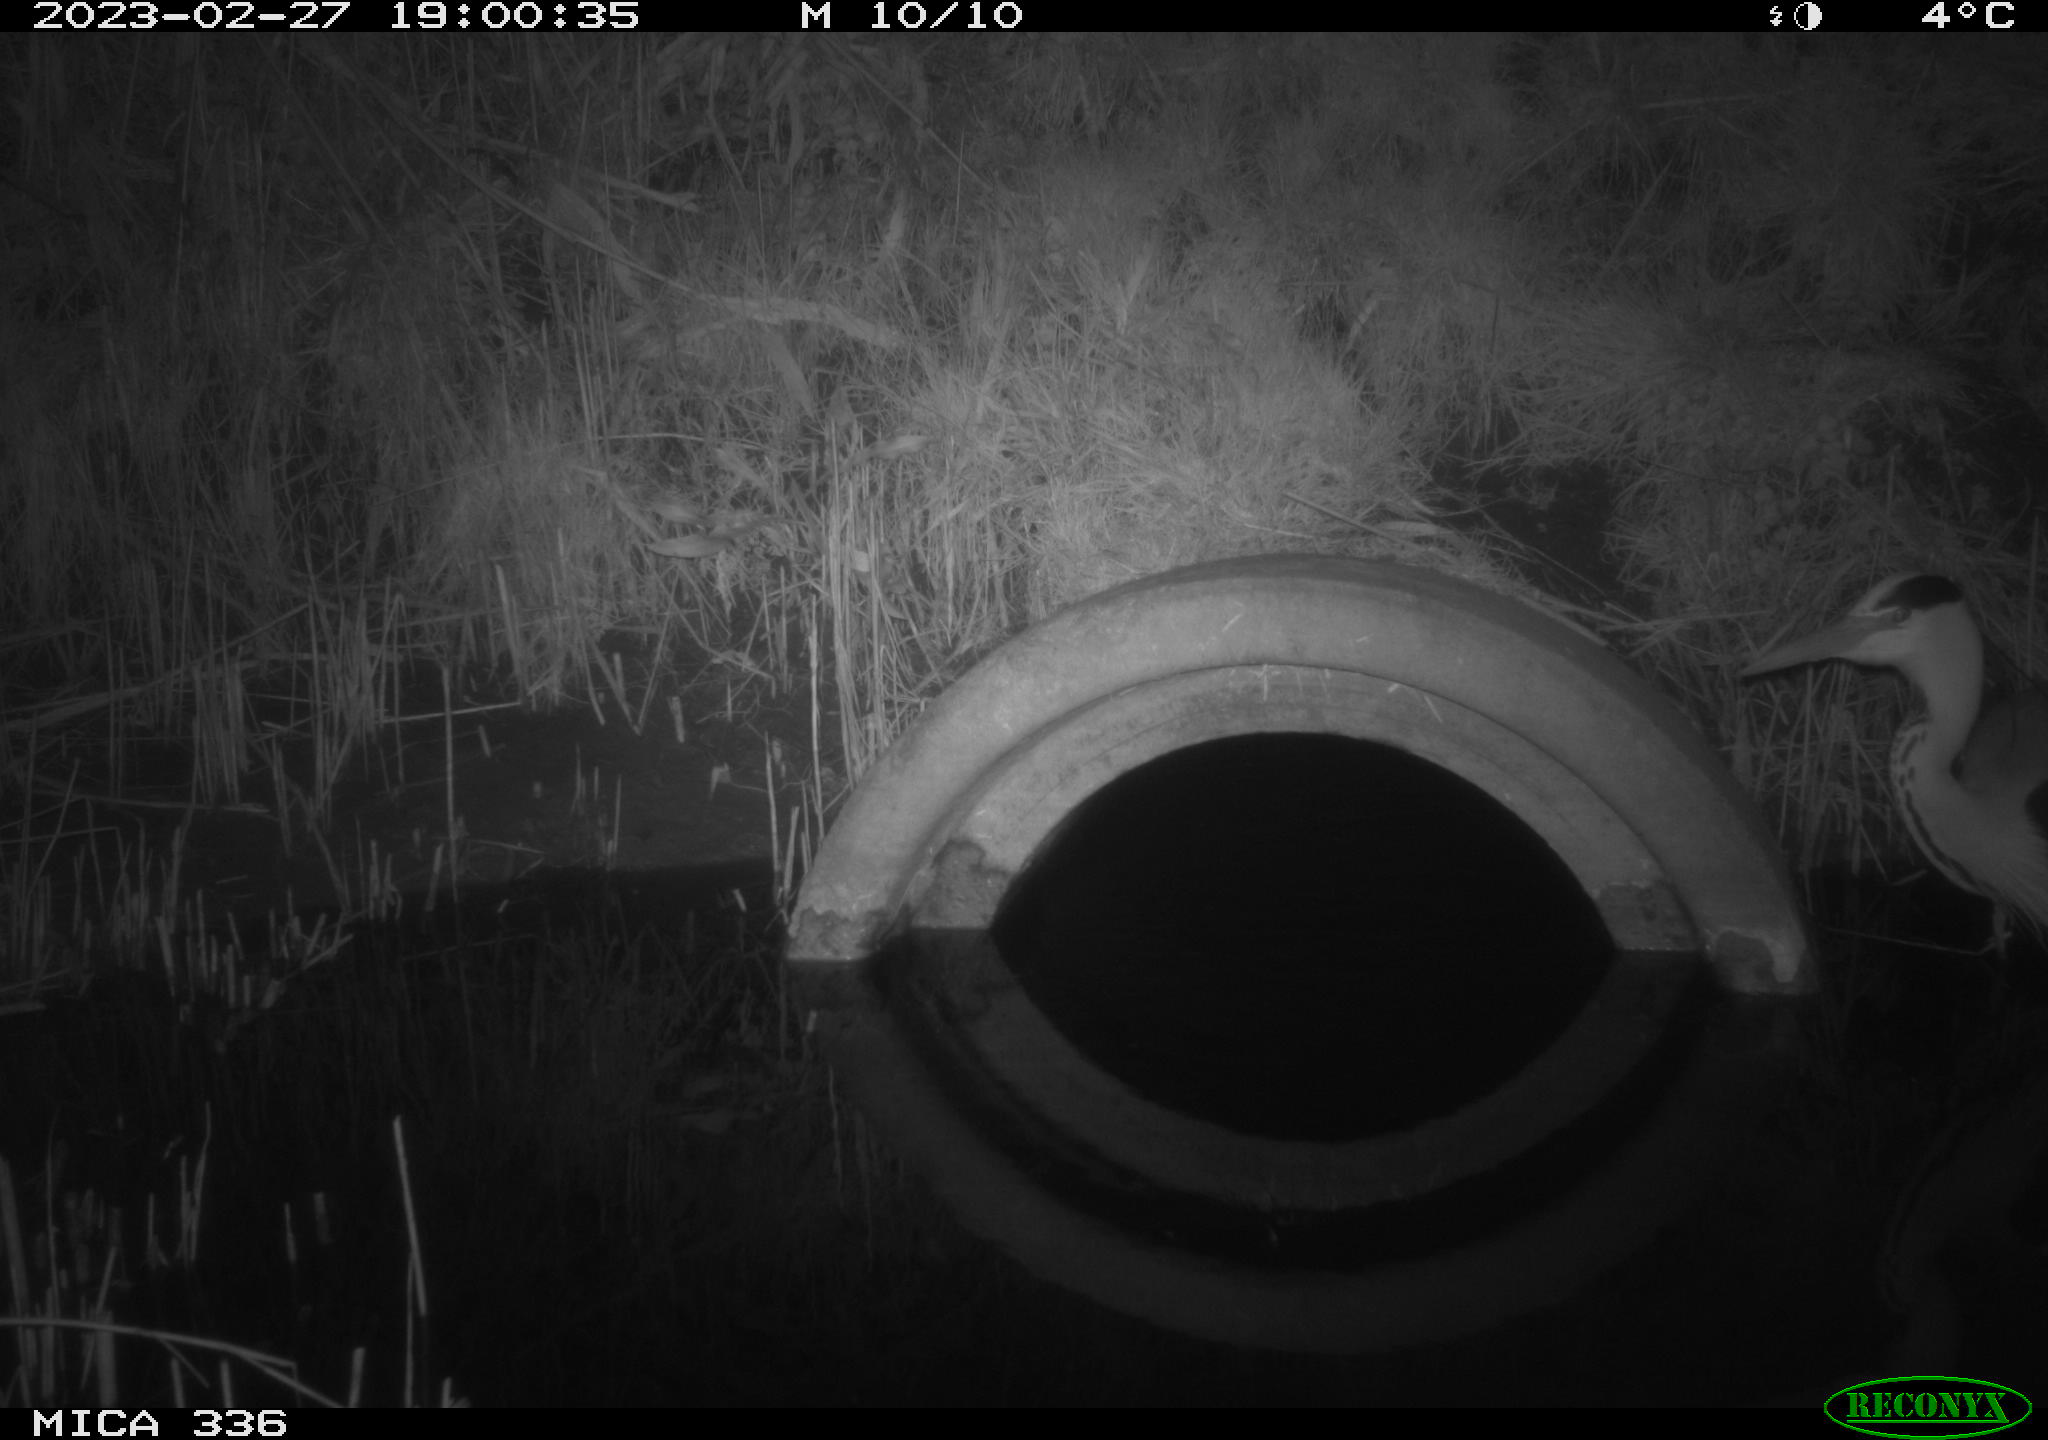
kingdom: Animalia
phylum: Chordata
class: Aves
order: Pelecaniformes
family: Ardeidae
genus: Ardea
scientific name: Ardea cinerea
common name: Grey heron
